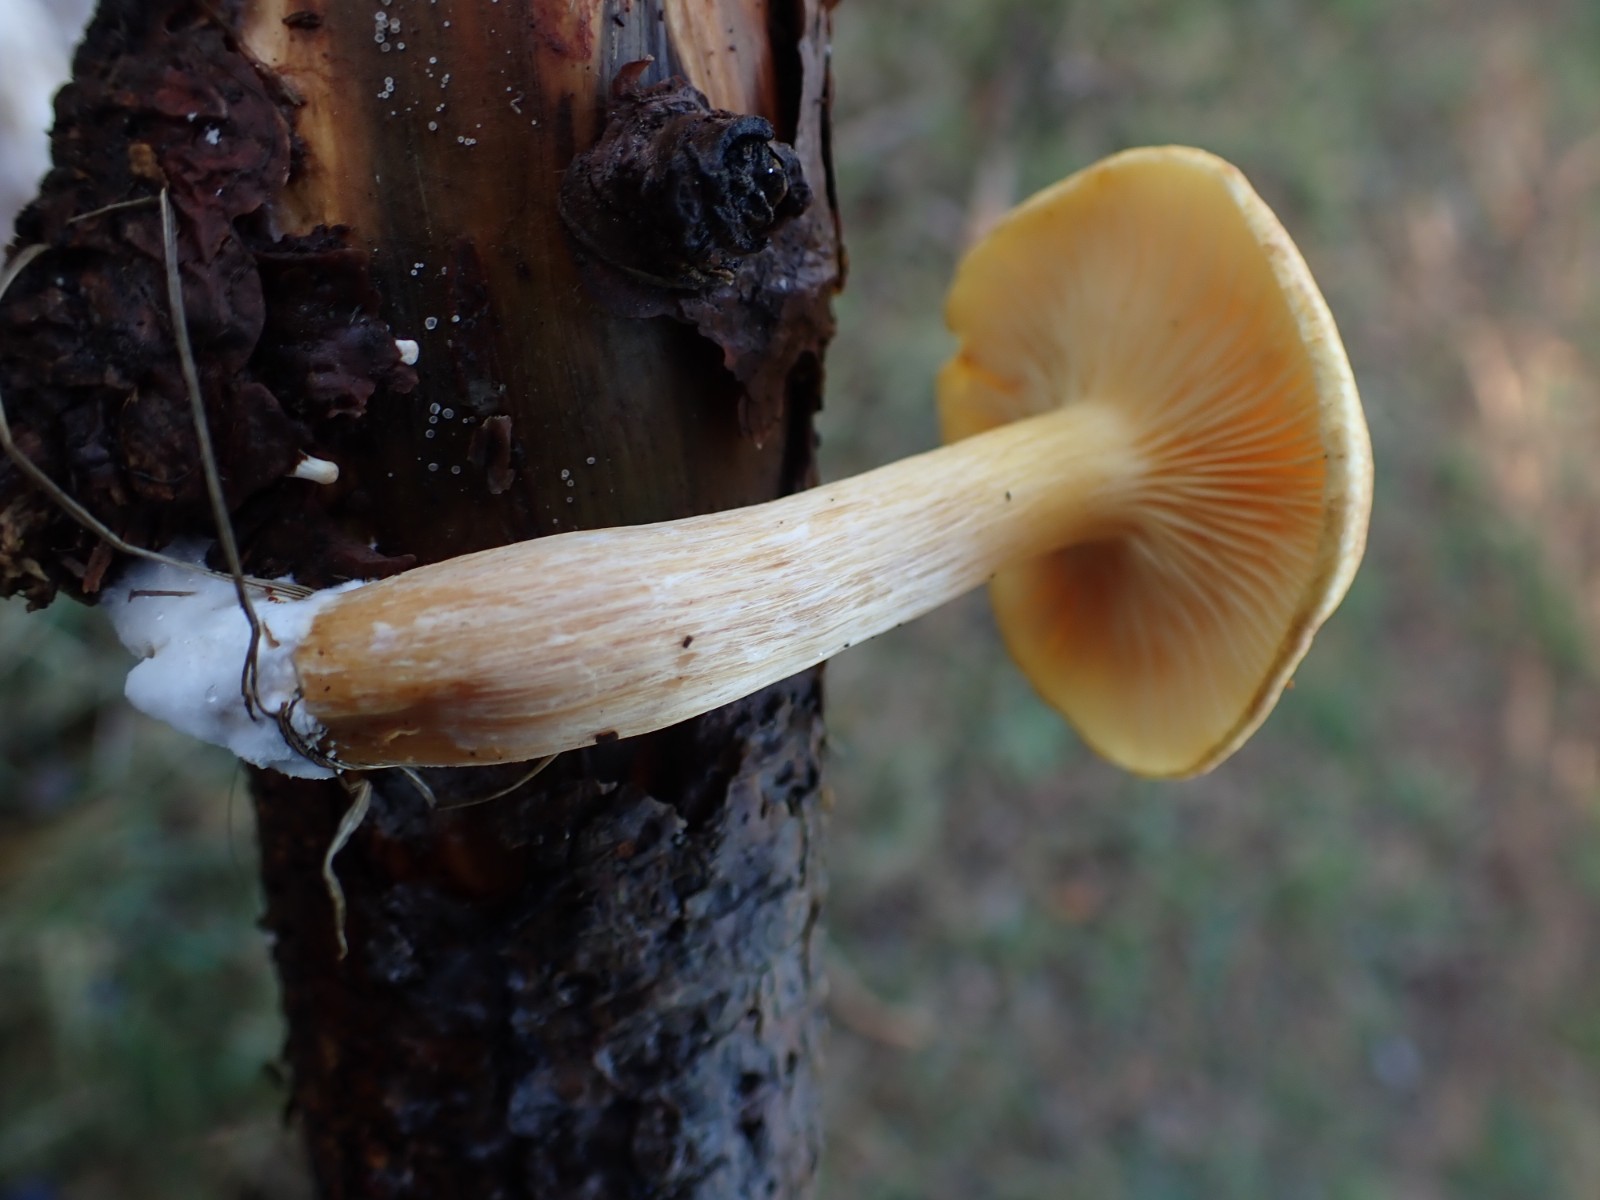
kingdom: Fungi
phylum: Basidiomycota
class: Agaricomycetes
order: Agaricales
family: Hymenogastraceae
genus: Gymnopilus
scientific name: Gymnopilus penetrans
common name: plettet flammehat
